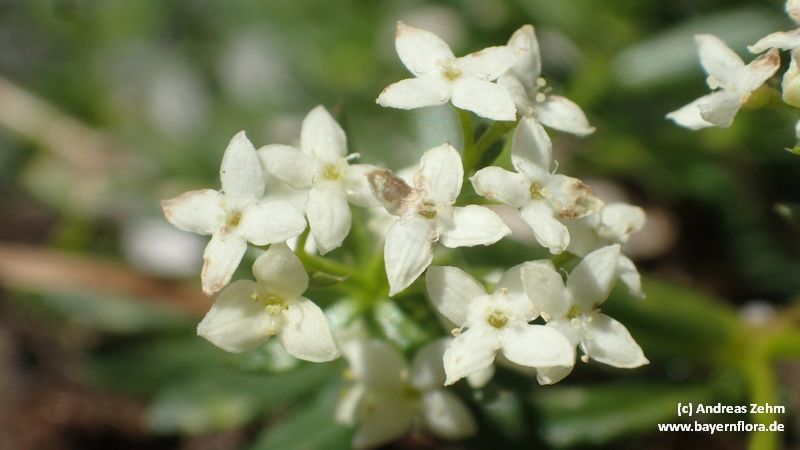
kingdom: Plantae
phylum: Tracheophyta
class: Magnoliopsida
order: Gentianales
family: Rubiaceae
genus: Galium
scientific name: Galium anisophyllon
